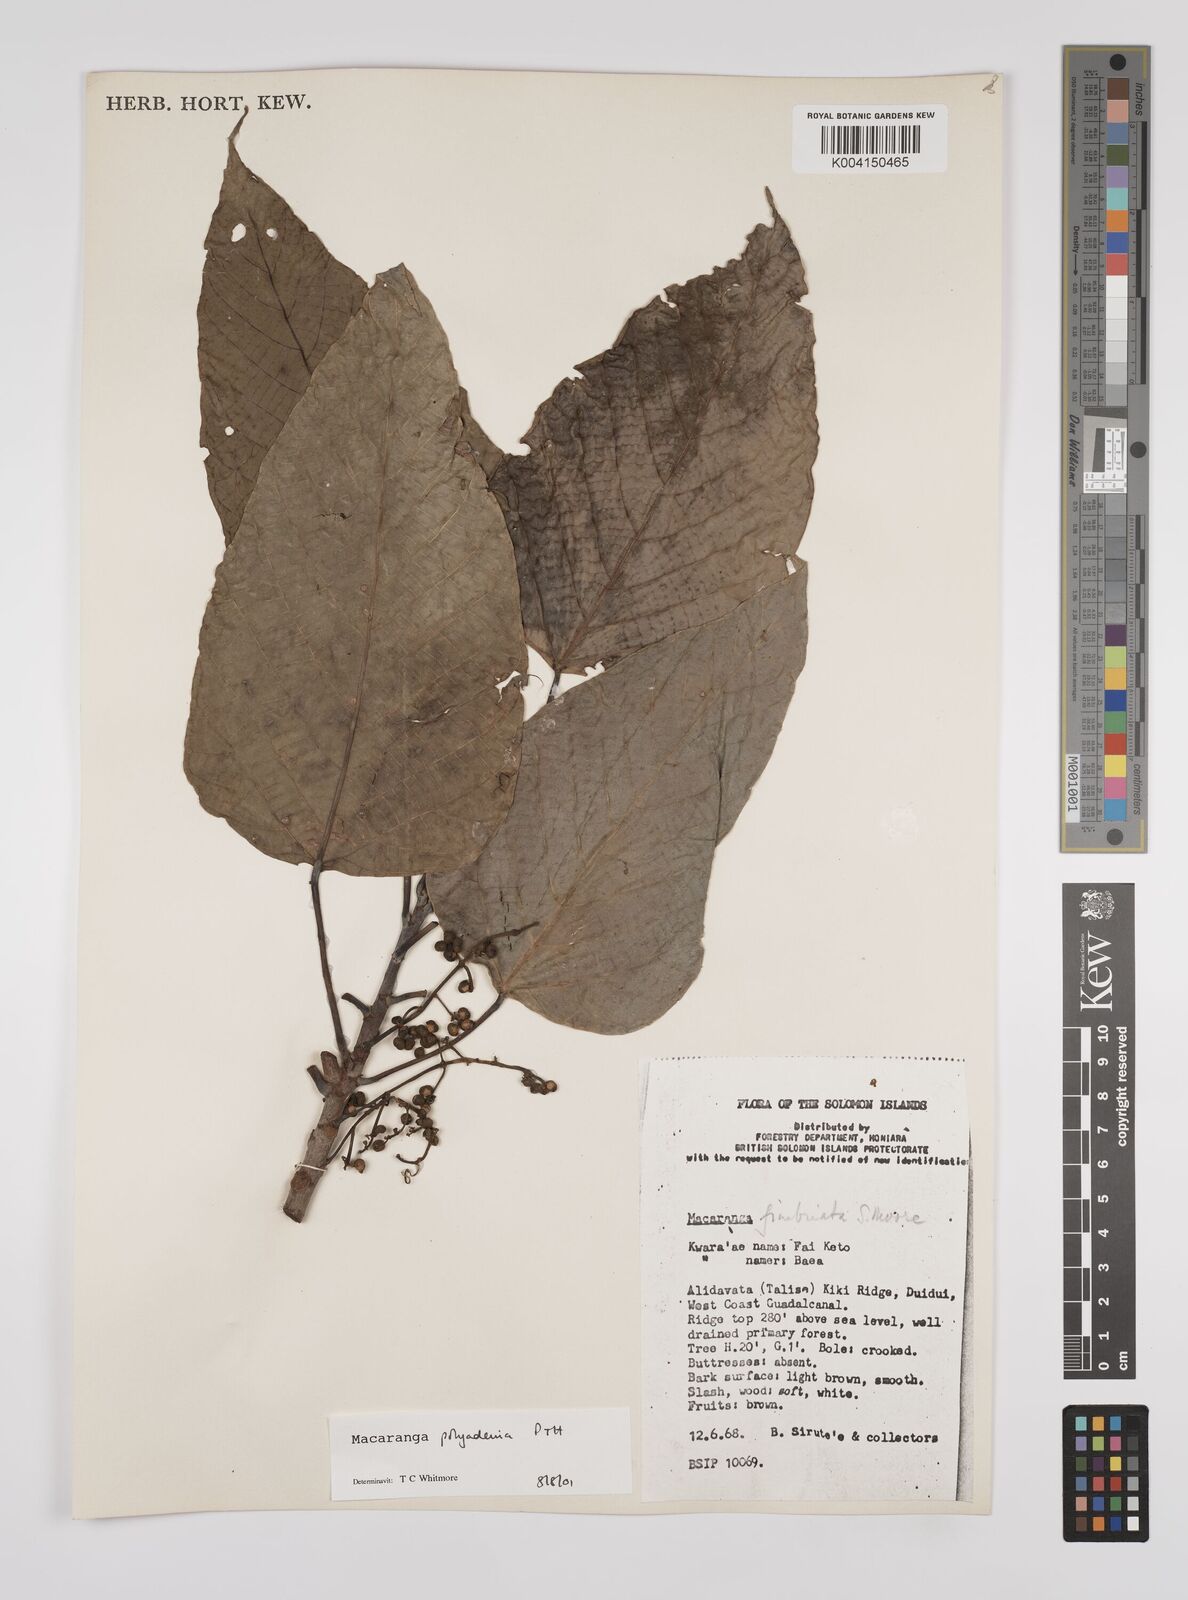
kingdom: Plantae
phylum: Tracheophyta
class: Magnoliopsida
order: Malpighiales
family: Euphorbiaceae
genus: Macaranga
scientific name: Macaranga polyadenia
